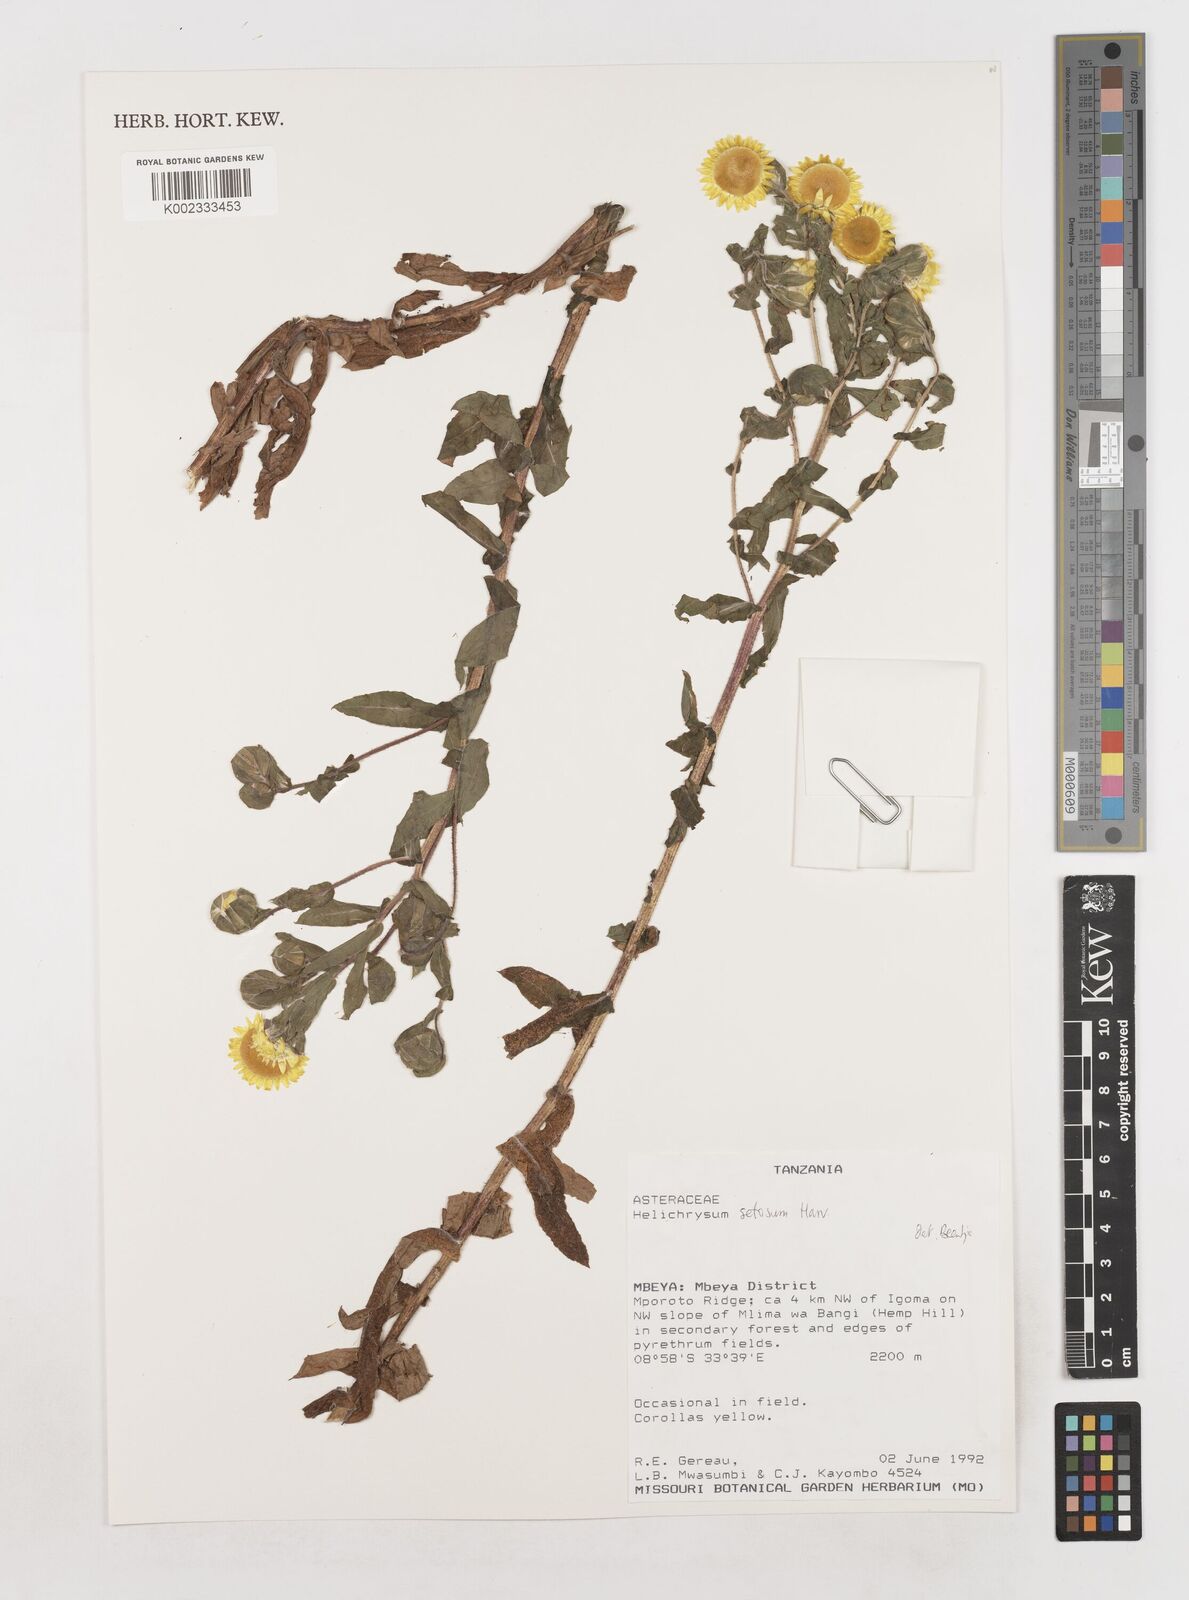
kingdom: Plantae
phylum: Tracheophyta
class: Magnoliopsida
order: Asterales
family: Asteraceae
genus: Helichrysum
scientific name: Helichrysum setosum
